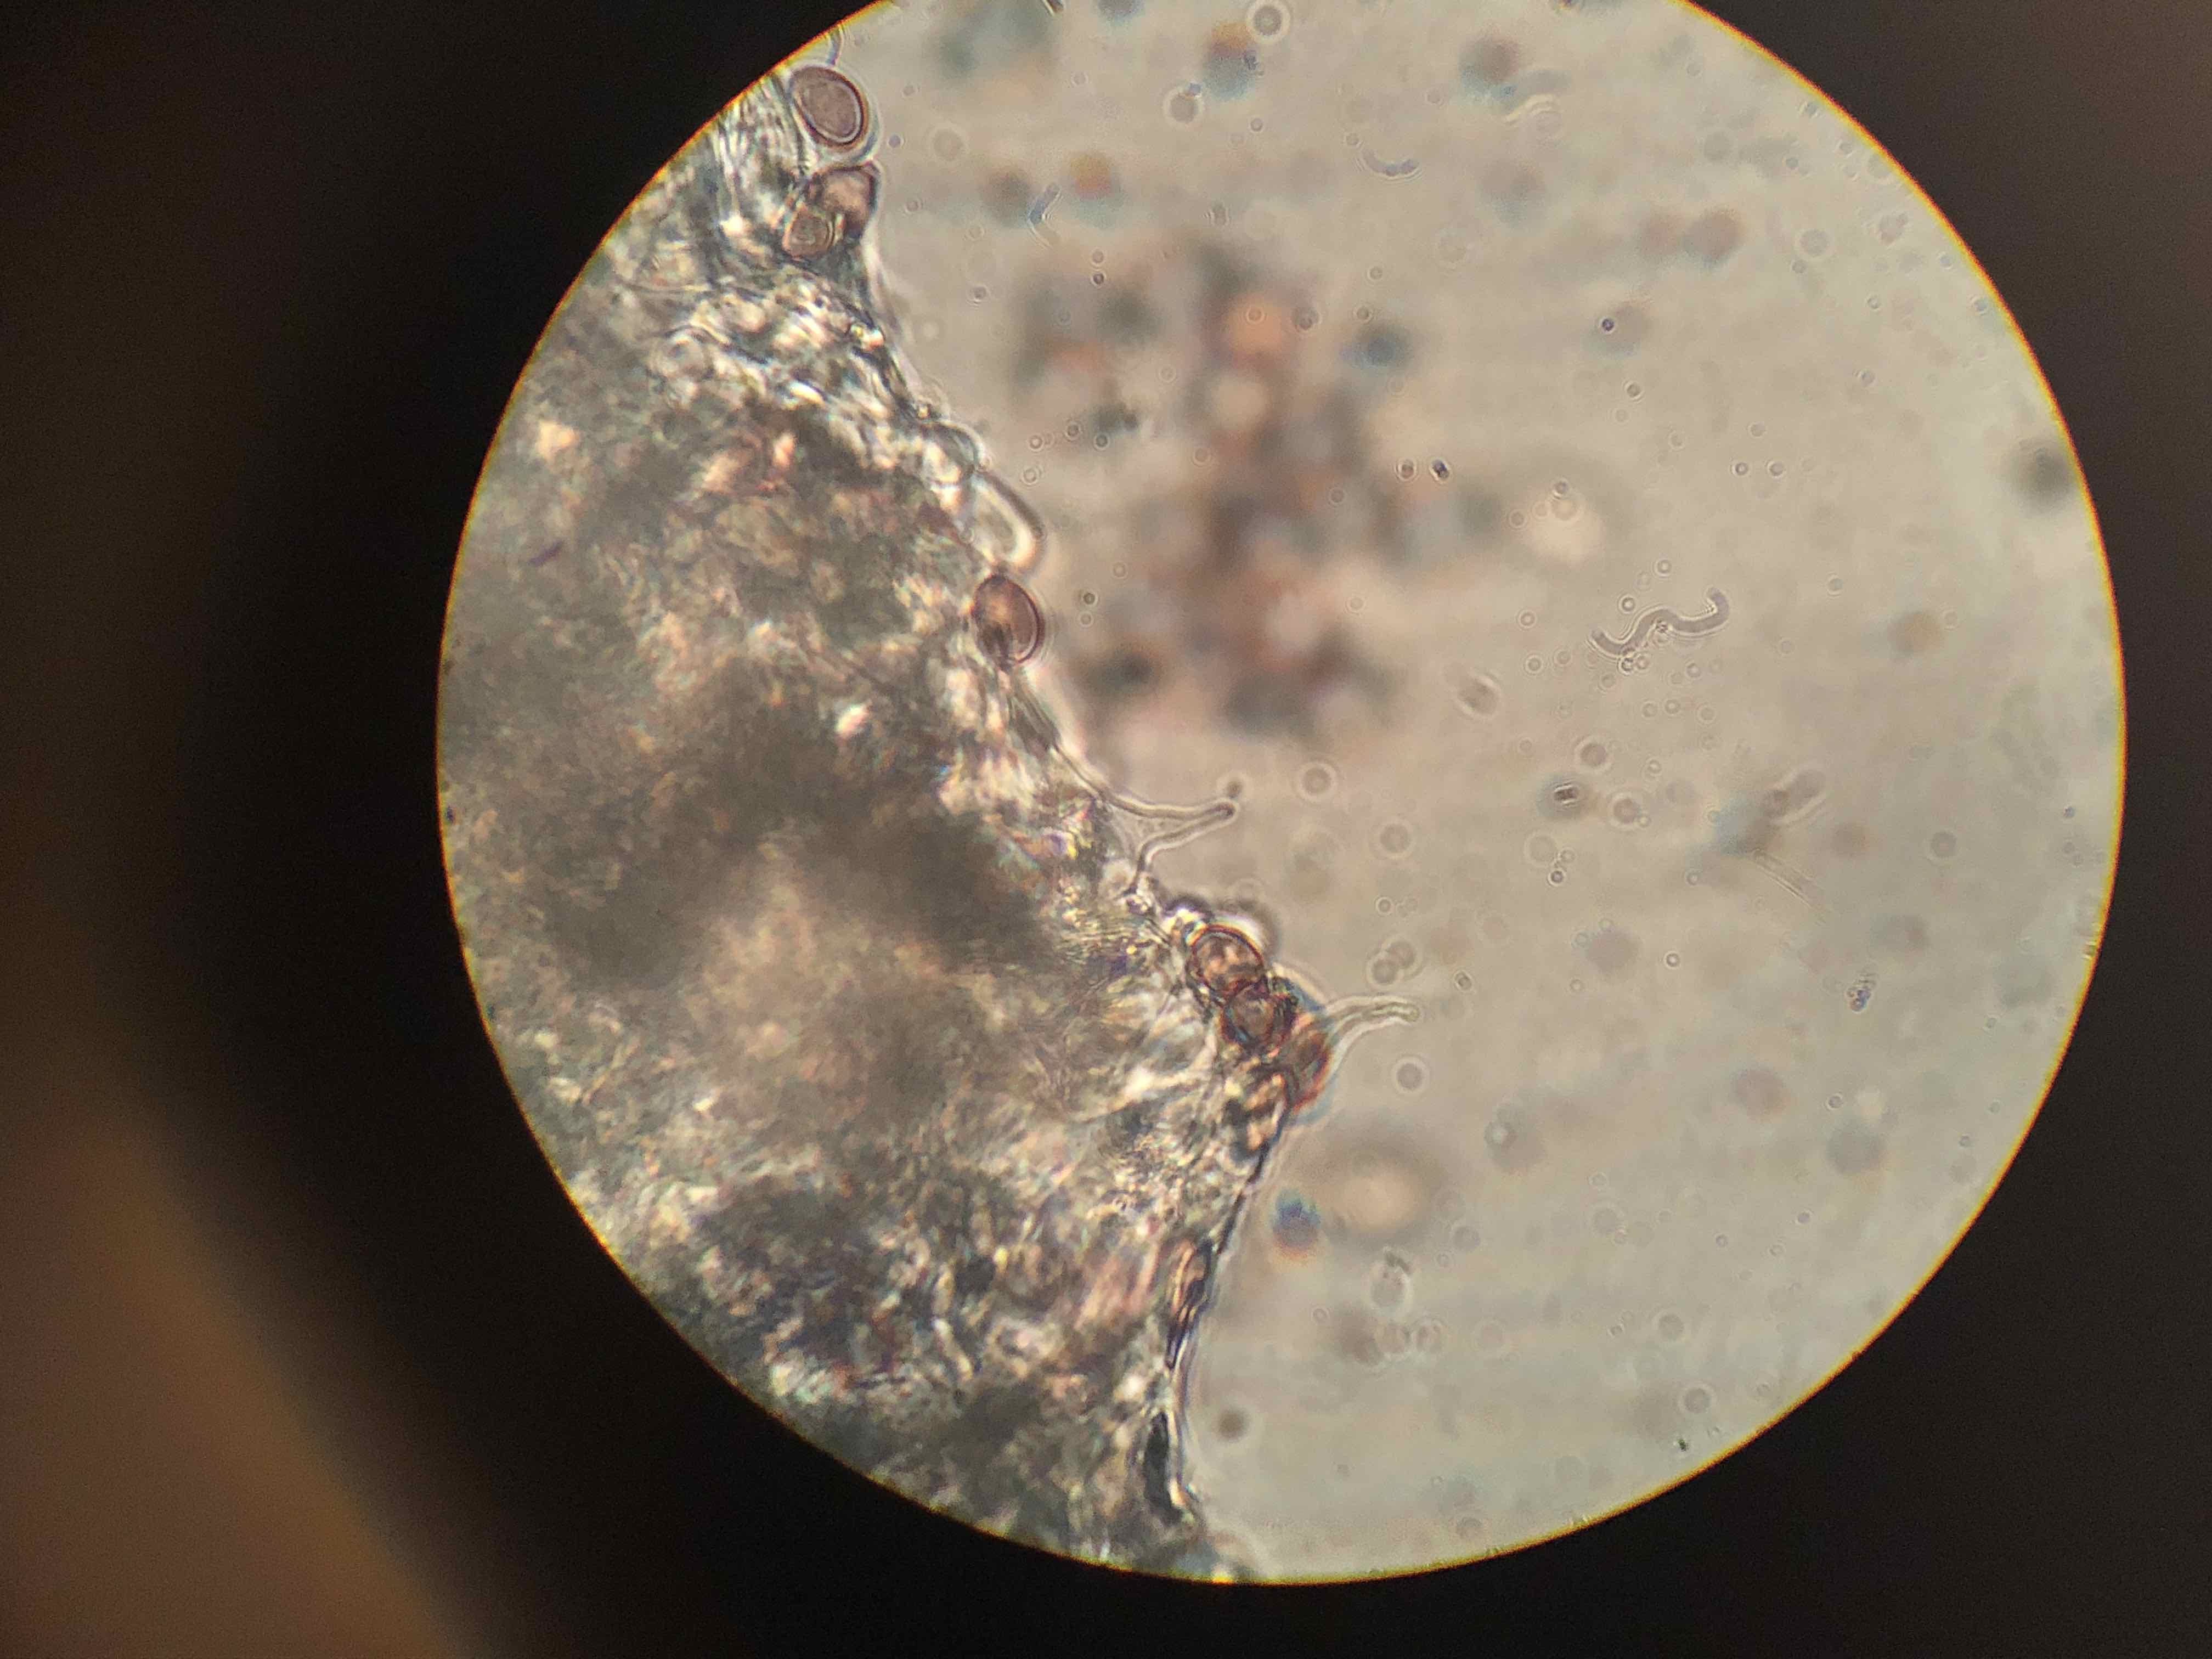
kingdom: Fungi
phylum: Basidiomycota
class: Agaricomycetes
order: Agaricales
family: Hymenogastraceae
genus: Psilocybe
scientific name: Psilocybe fimetaria
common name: prægtig nøgenhat
